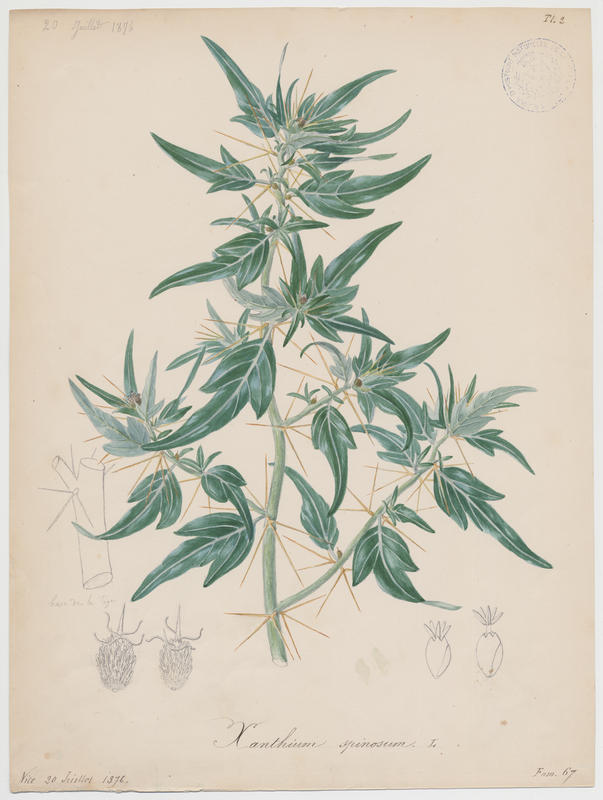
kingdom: Plantae
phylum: Tracheophyta
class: Magnoliopsida
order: Asterales
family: Asteraceae
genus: Xanthium
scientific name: Xanthium spinosum
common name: Spiny cocklebur
